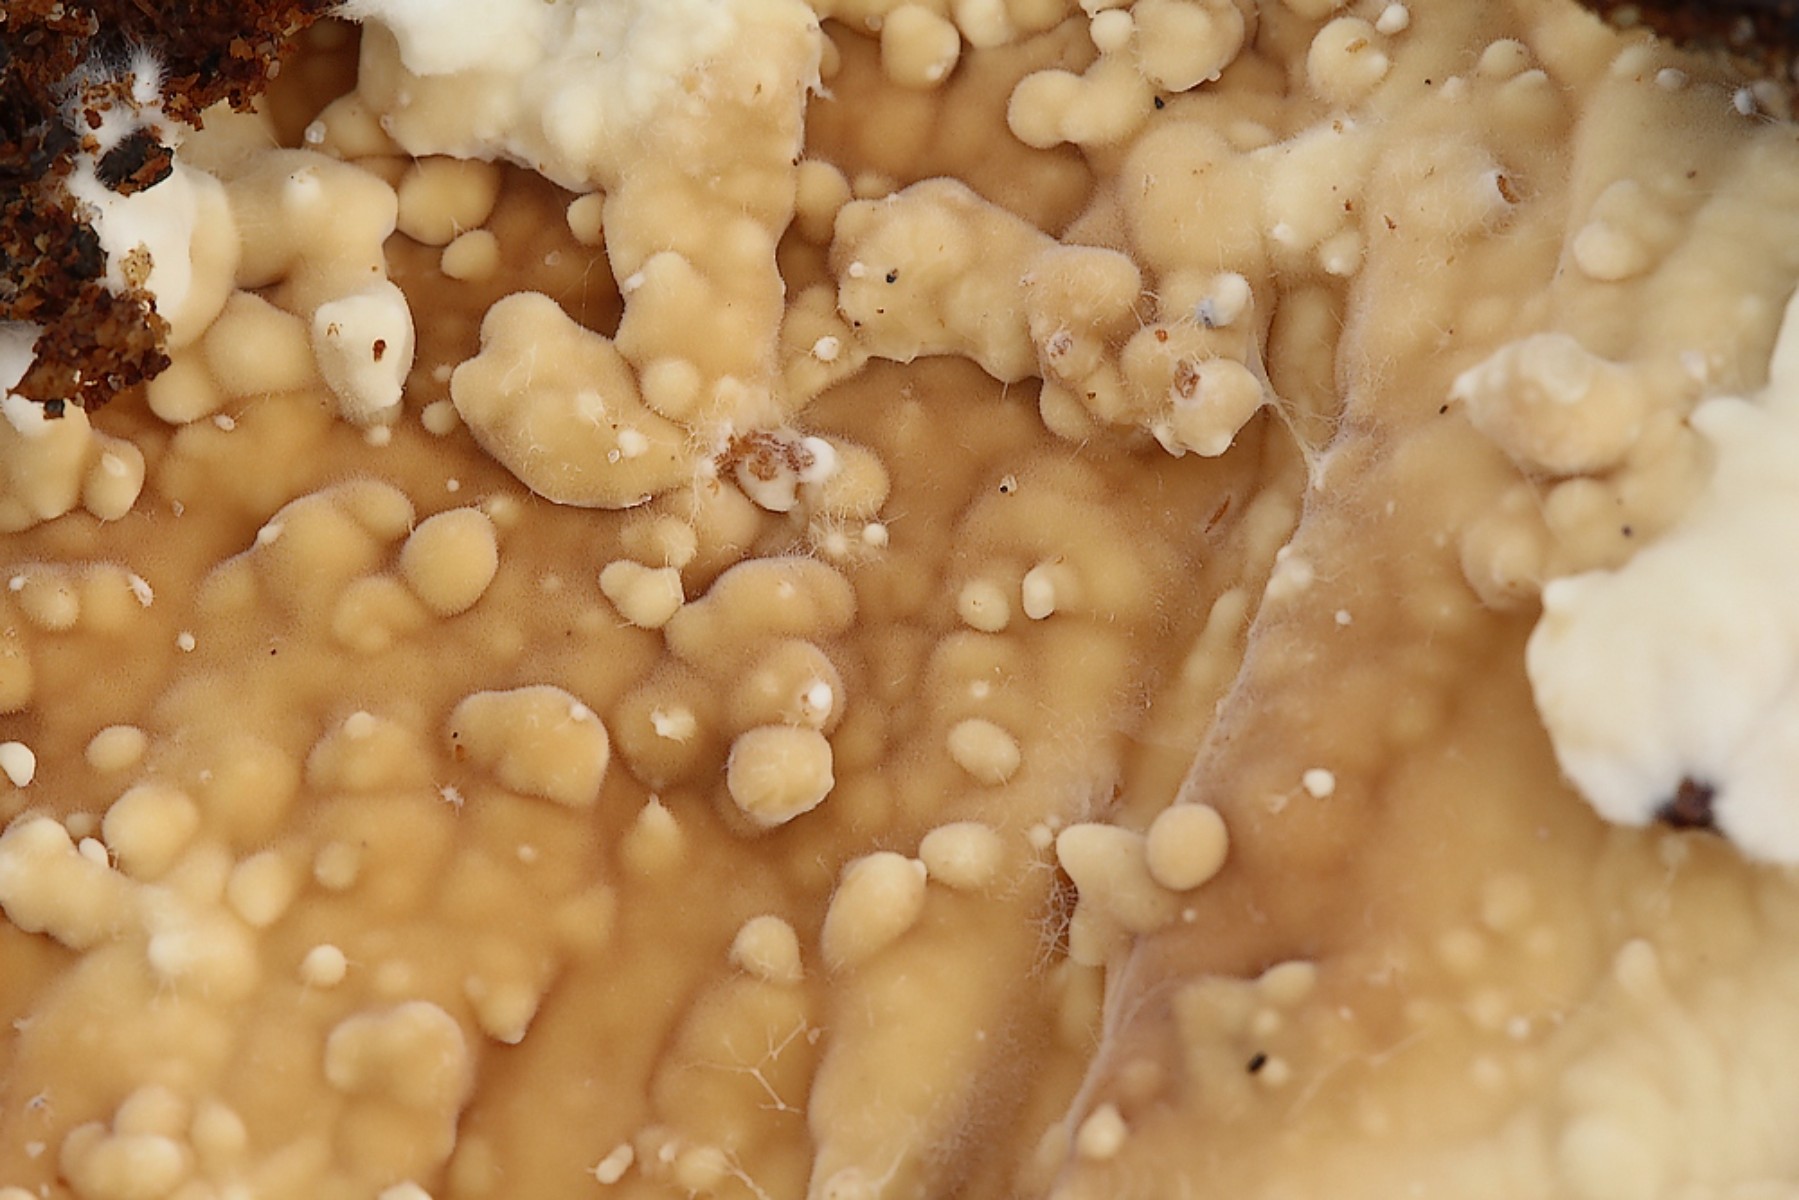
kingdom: Fungi
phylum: Basidiomycota
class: Agaricomycetes
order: Polyporales
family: Dacryobolaceae
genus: Dacryobolus
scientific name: Dacryobolus karstenii
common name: glat vulkanskorpe
